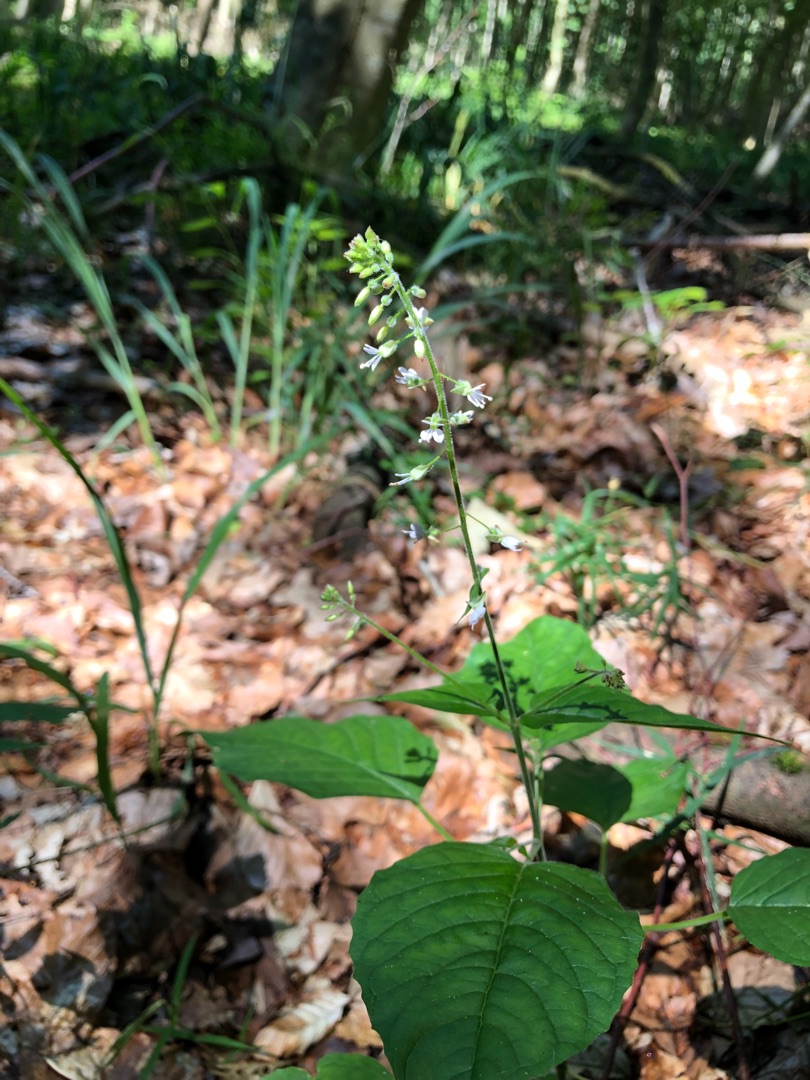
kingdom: Plantae
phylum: Tracheophyta
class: Magnoliopsida
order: Myrtales
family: Onagraceae
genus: Circaea
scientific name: Circaea lutetiana
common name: Dunet steffensurt
